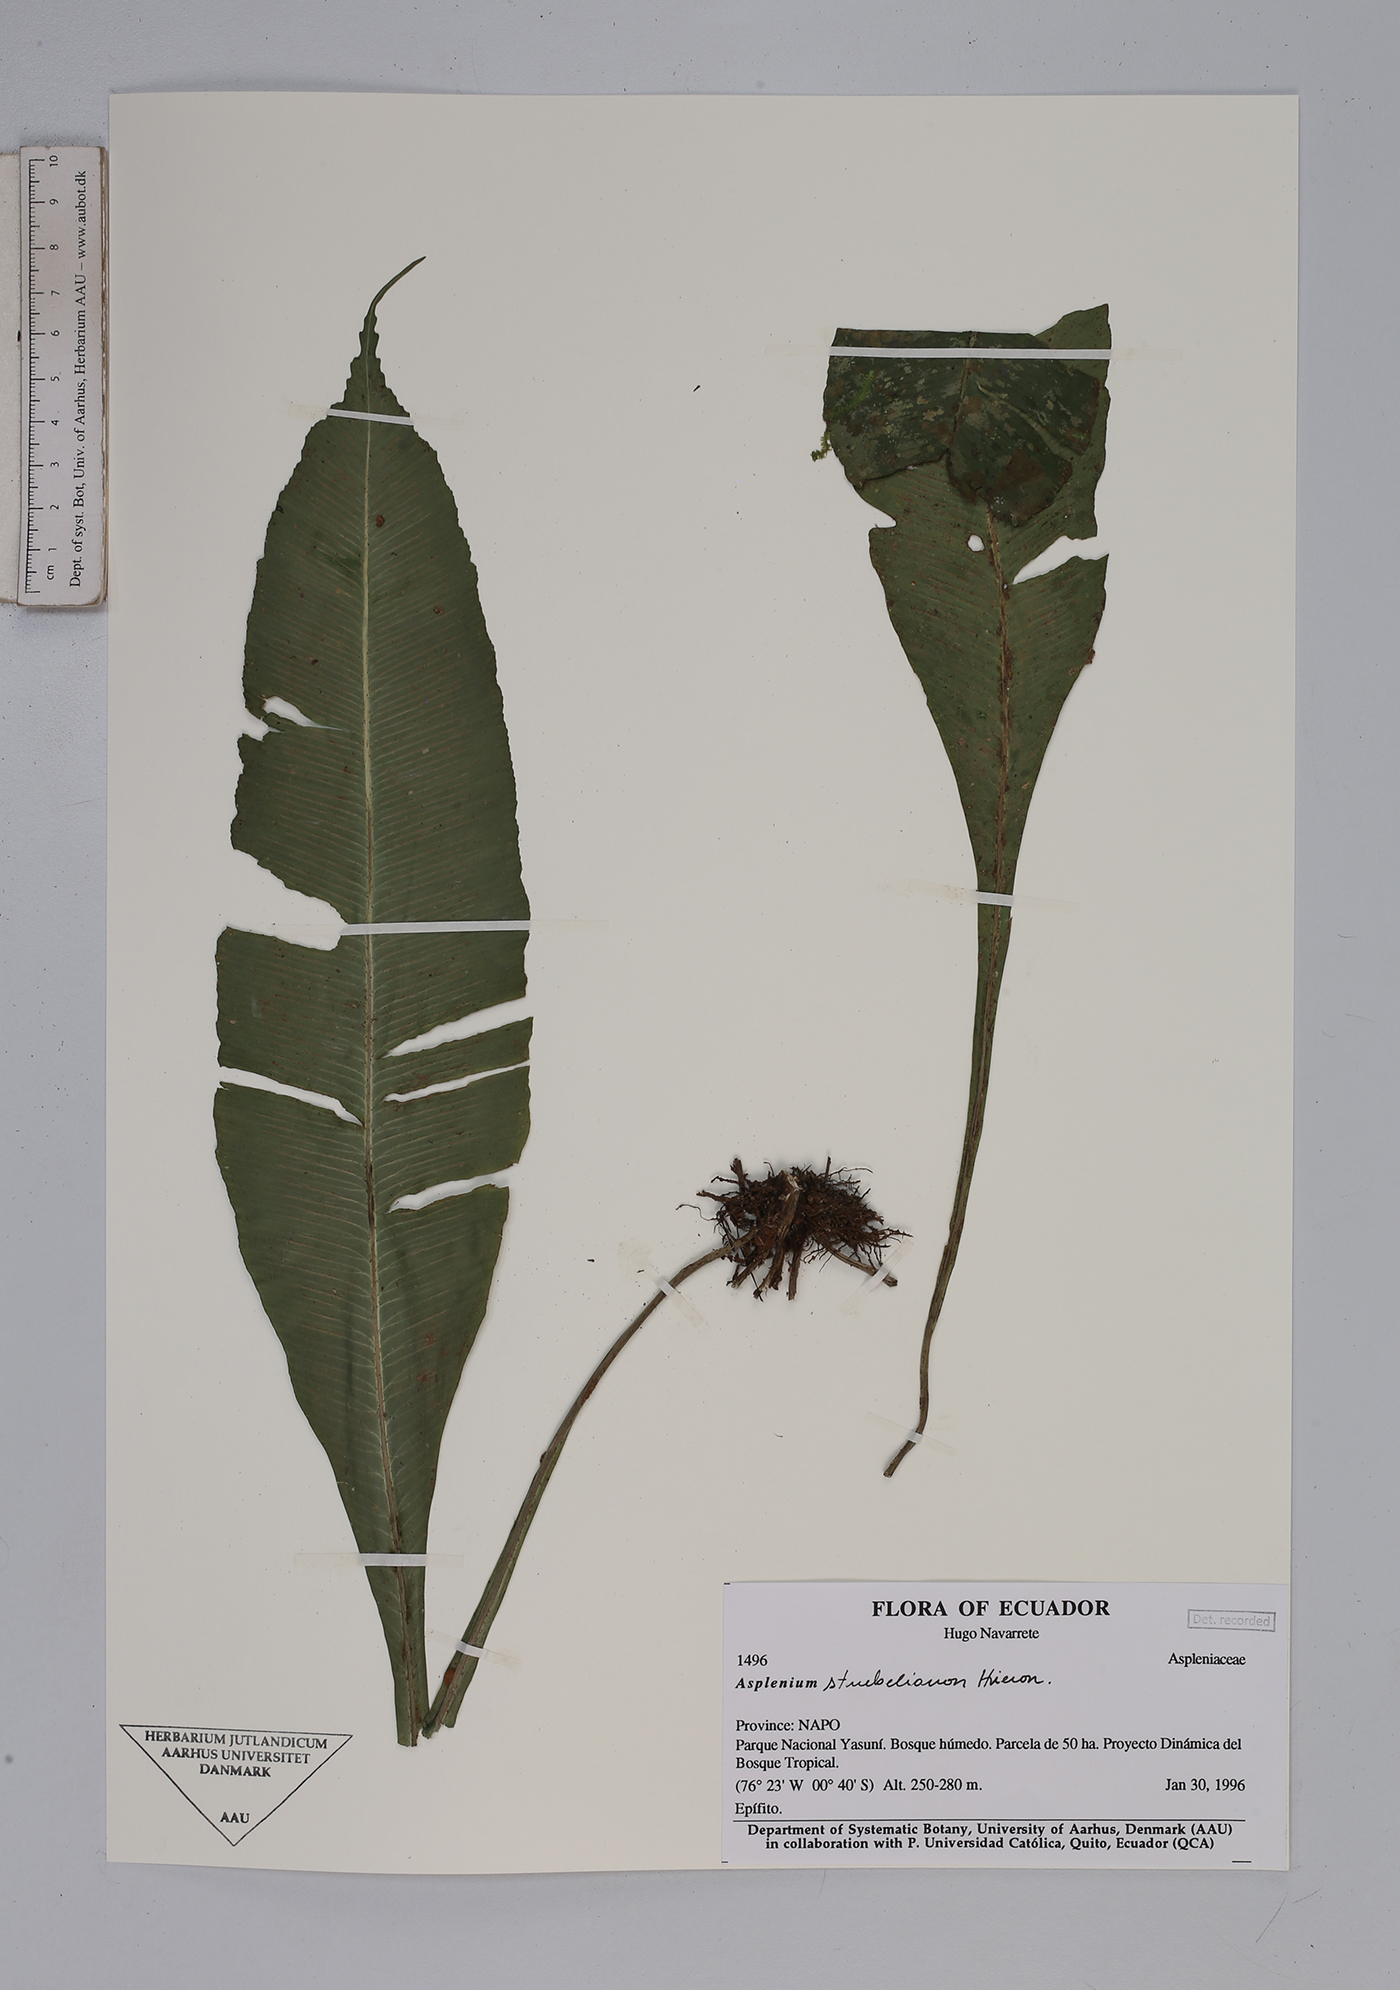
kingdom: Plantae
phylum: Tracheophyta
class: Polypodiopsida
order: Polypodiales
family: Aspleniaceae
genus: Asplenium
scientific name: Asplenium
